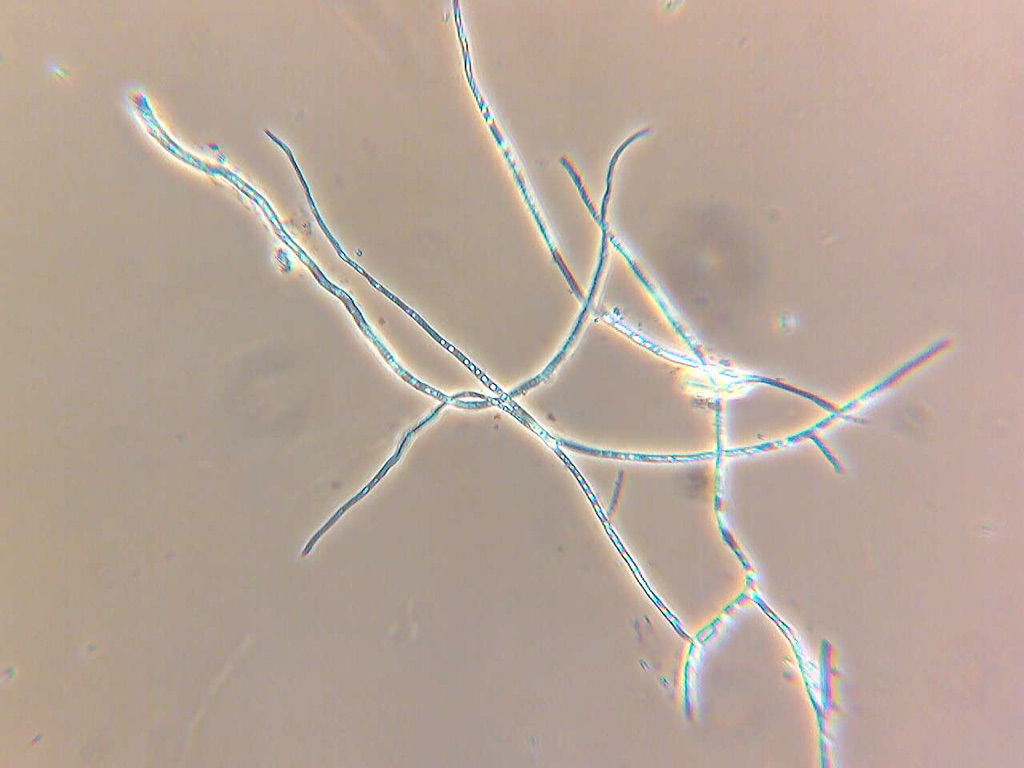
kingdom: Fungi
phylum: Ascomycota
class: Sordariomycetes
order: Xylariales
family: Diatrypaceae
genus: Eutypa
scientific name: Eutypa maura
